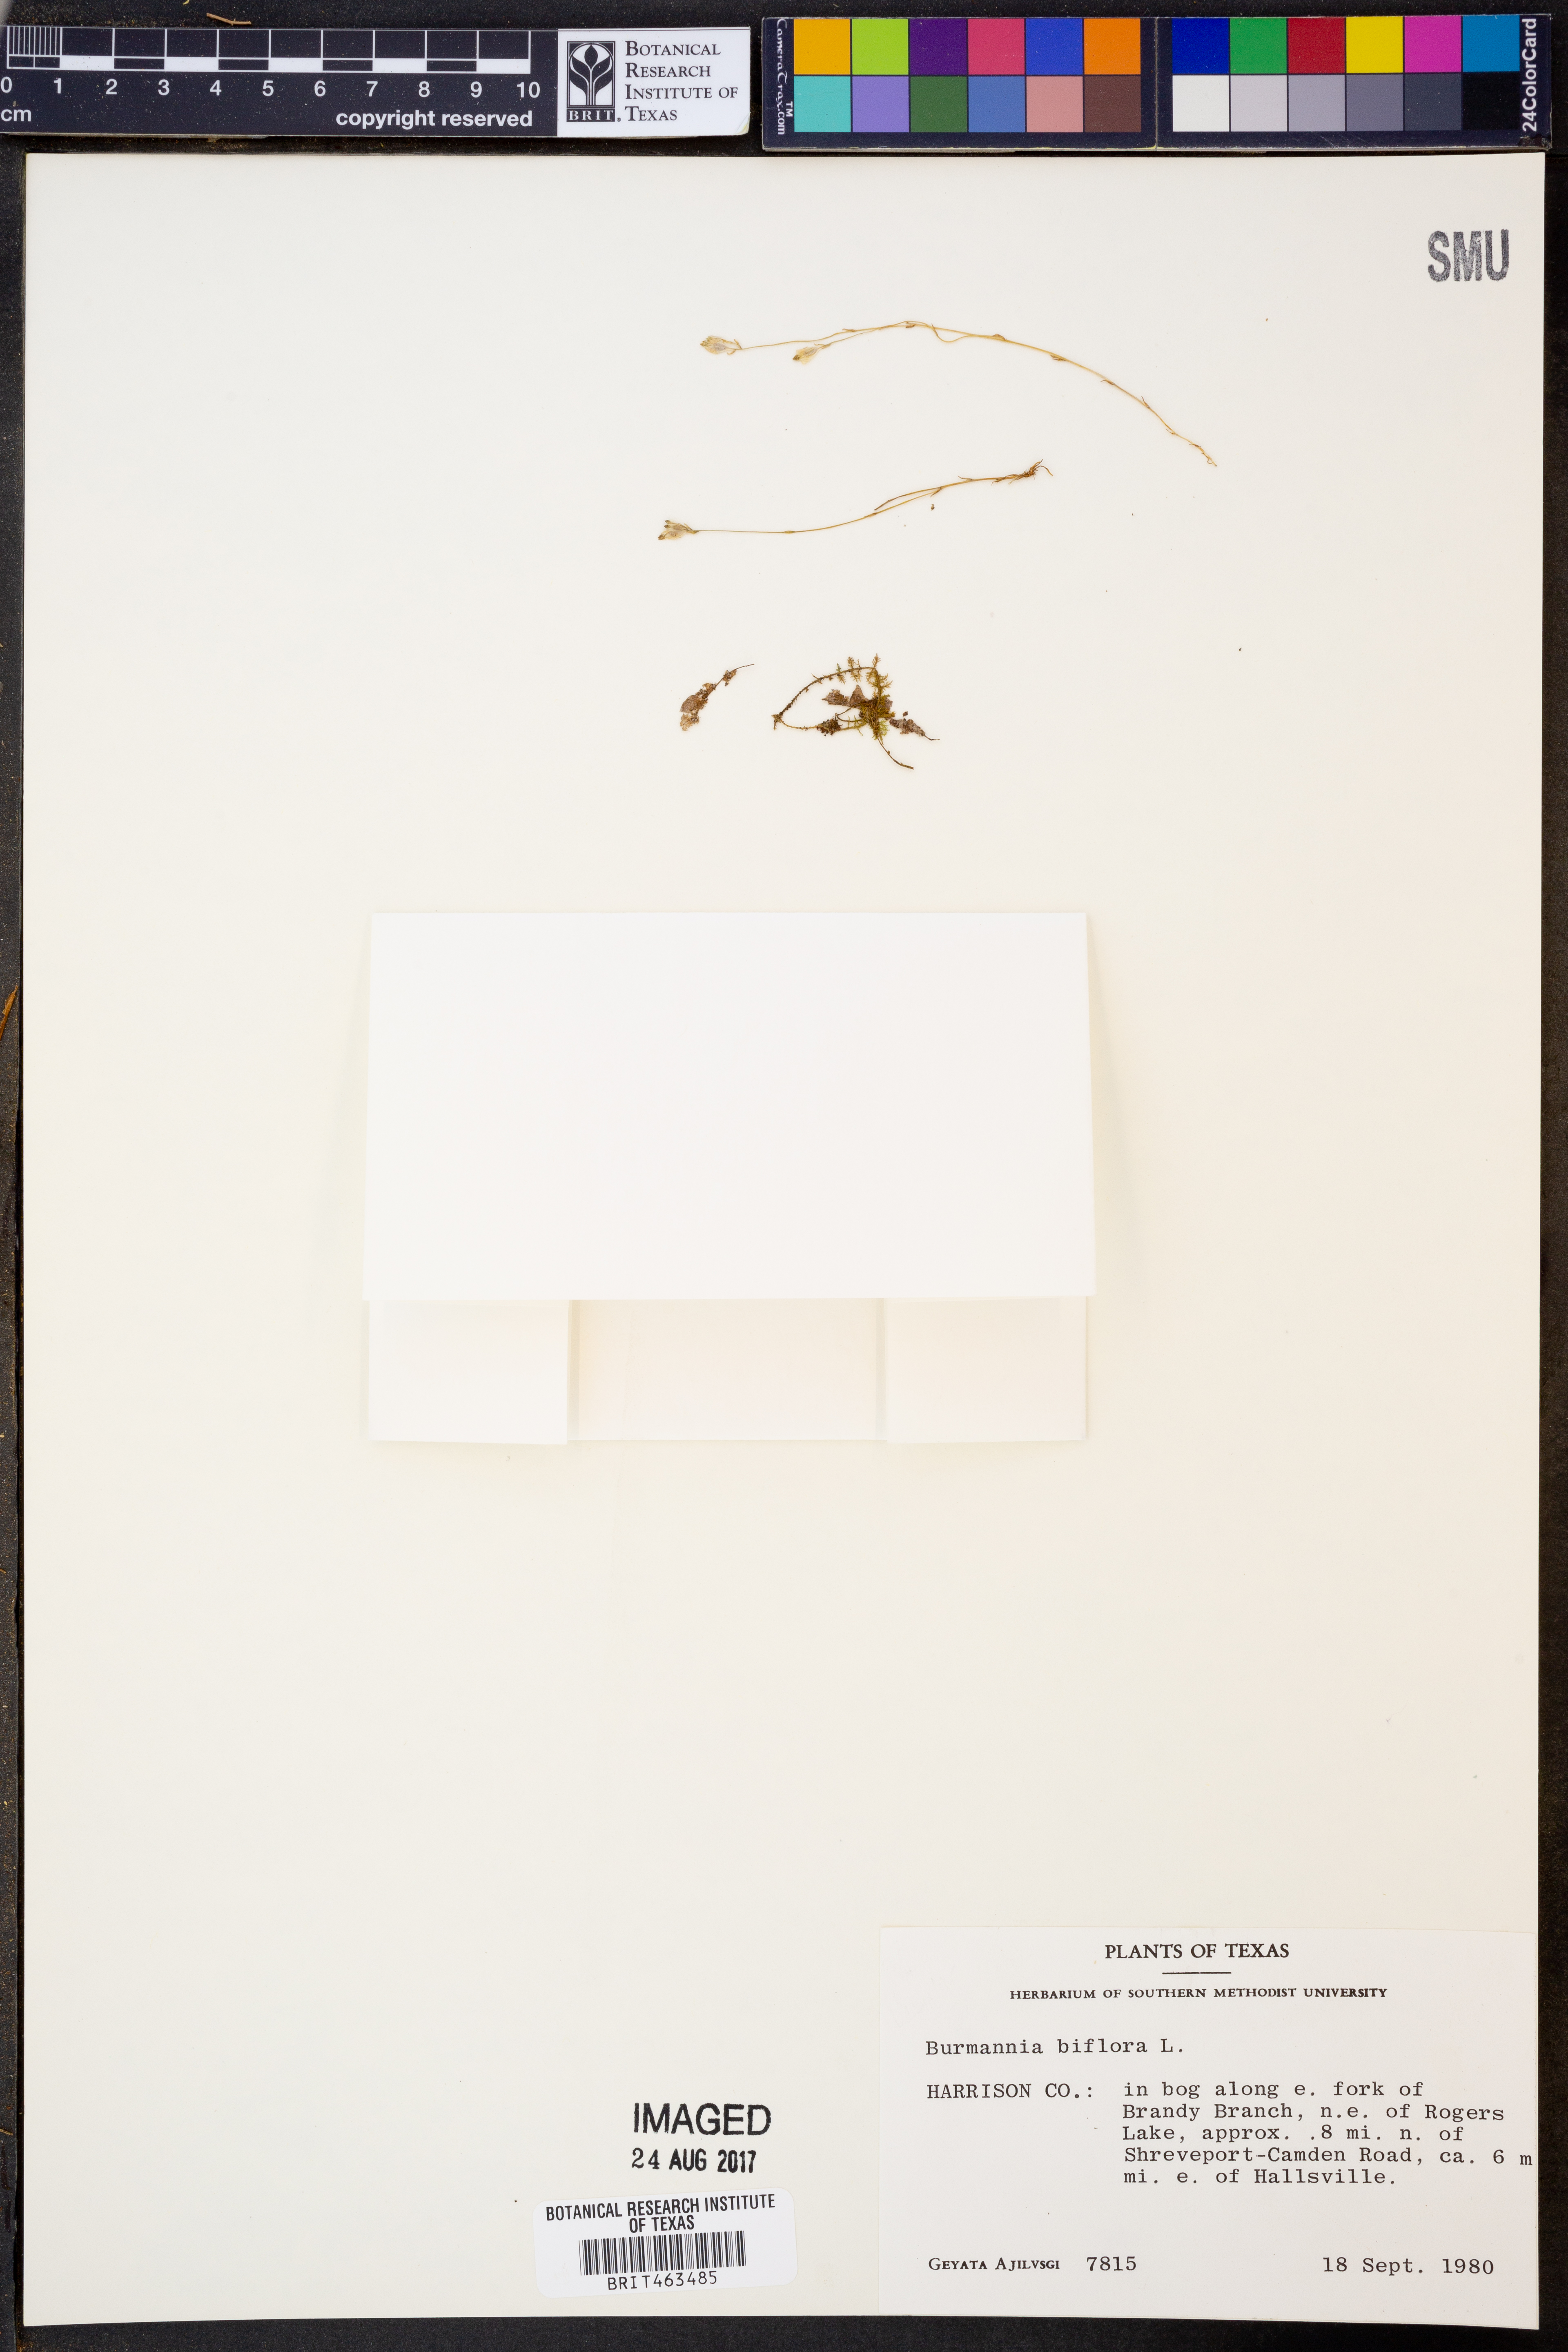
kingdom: Plantae
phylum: Tracheophyta
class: Liliopsida
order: Dioscoreales
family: Burmanniaceae
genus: Burmannia
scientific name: Burmannia biflora
